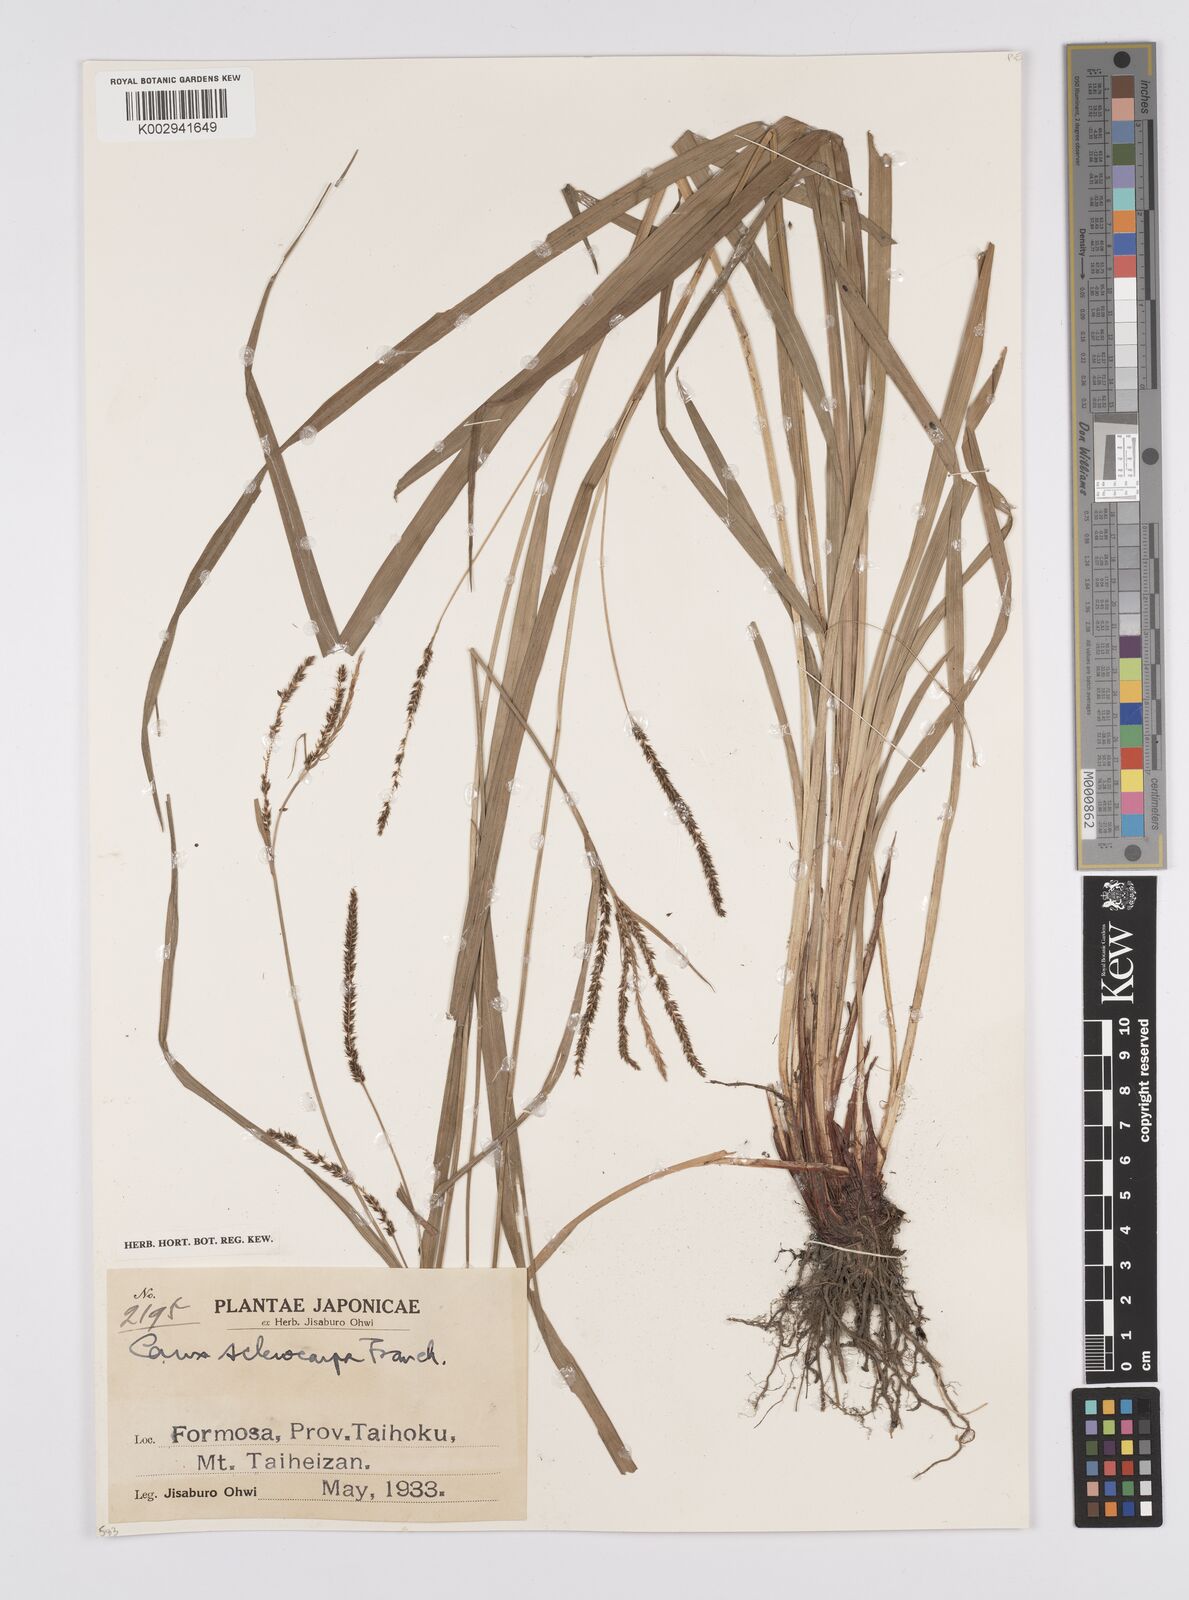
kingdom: Plantae
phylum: Tracheophyta
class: Liliopsida
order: Poales
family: Cyperaceae
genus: Carex
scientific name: Carex sclerocarpa
